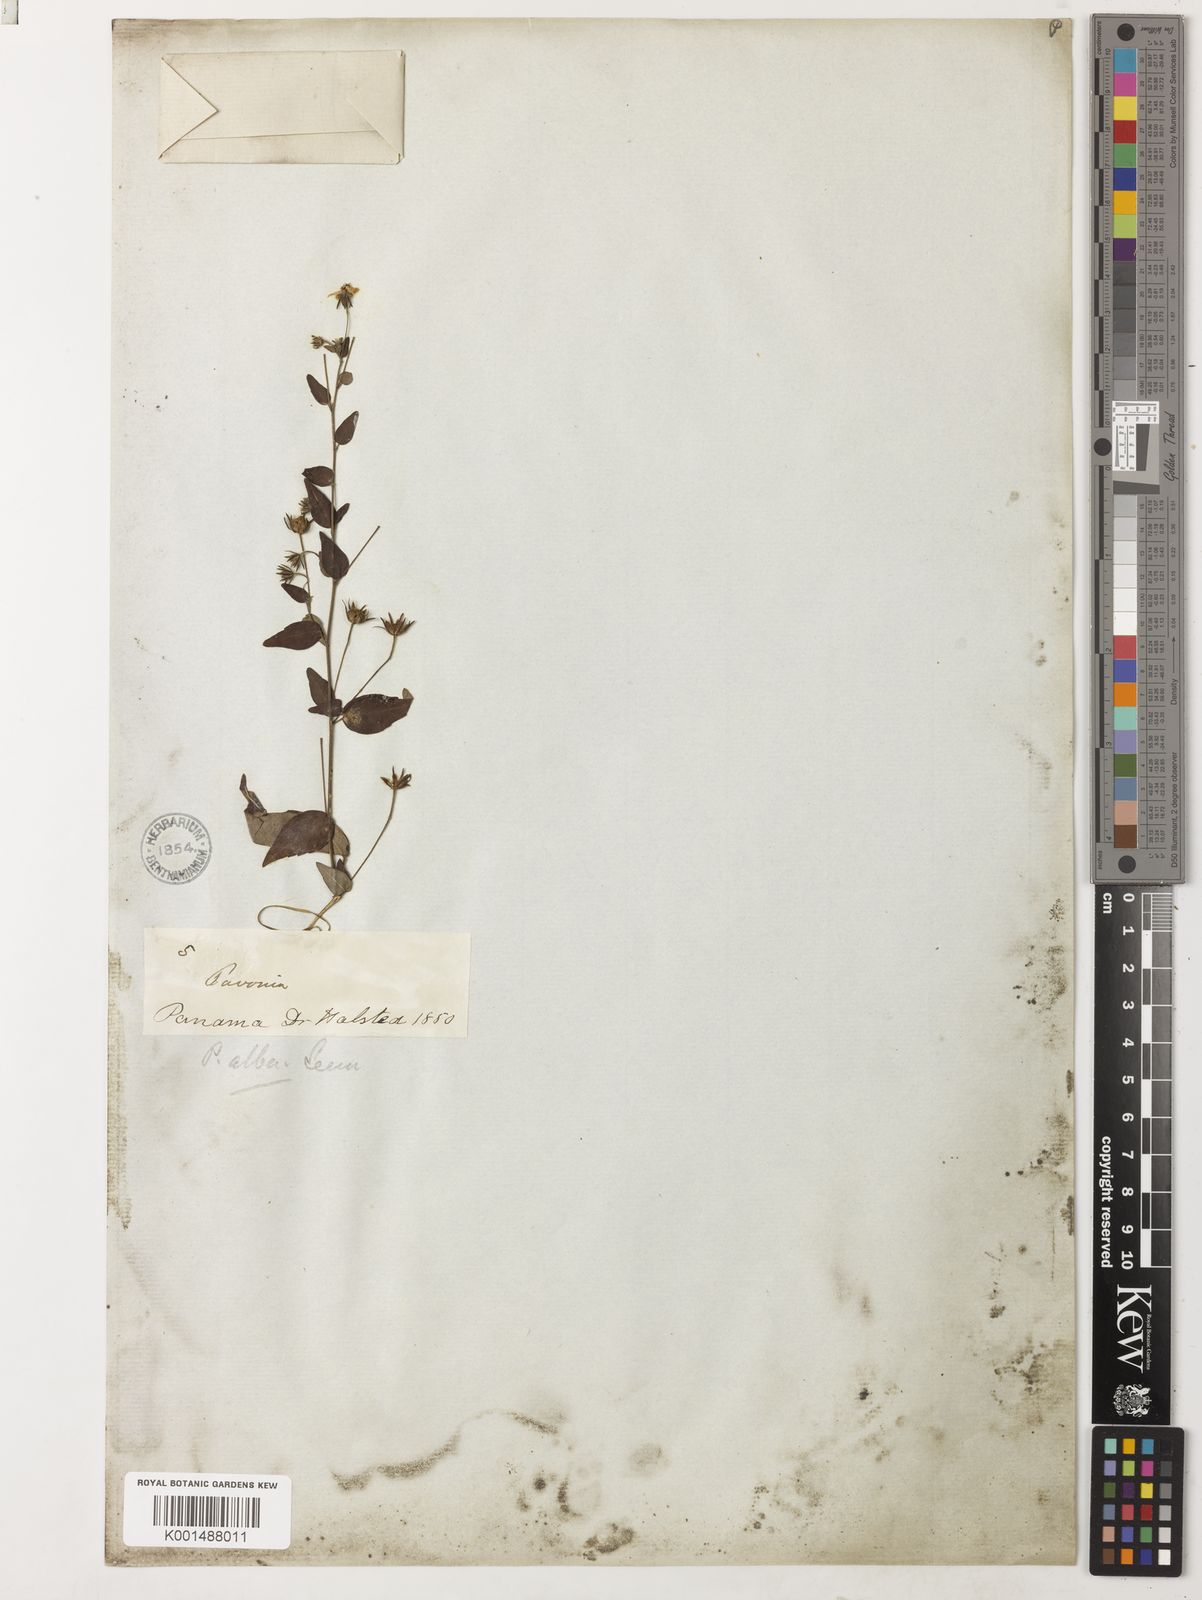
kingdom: Plantae
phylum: Tracheophyta
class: Magnoliopsida
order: Malvales
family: Malvaceae
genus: Pavonia
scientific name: Pavonia alba
